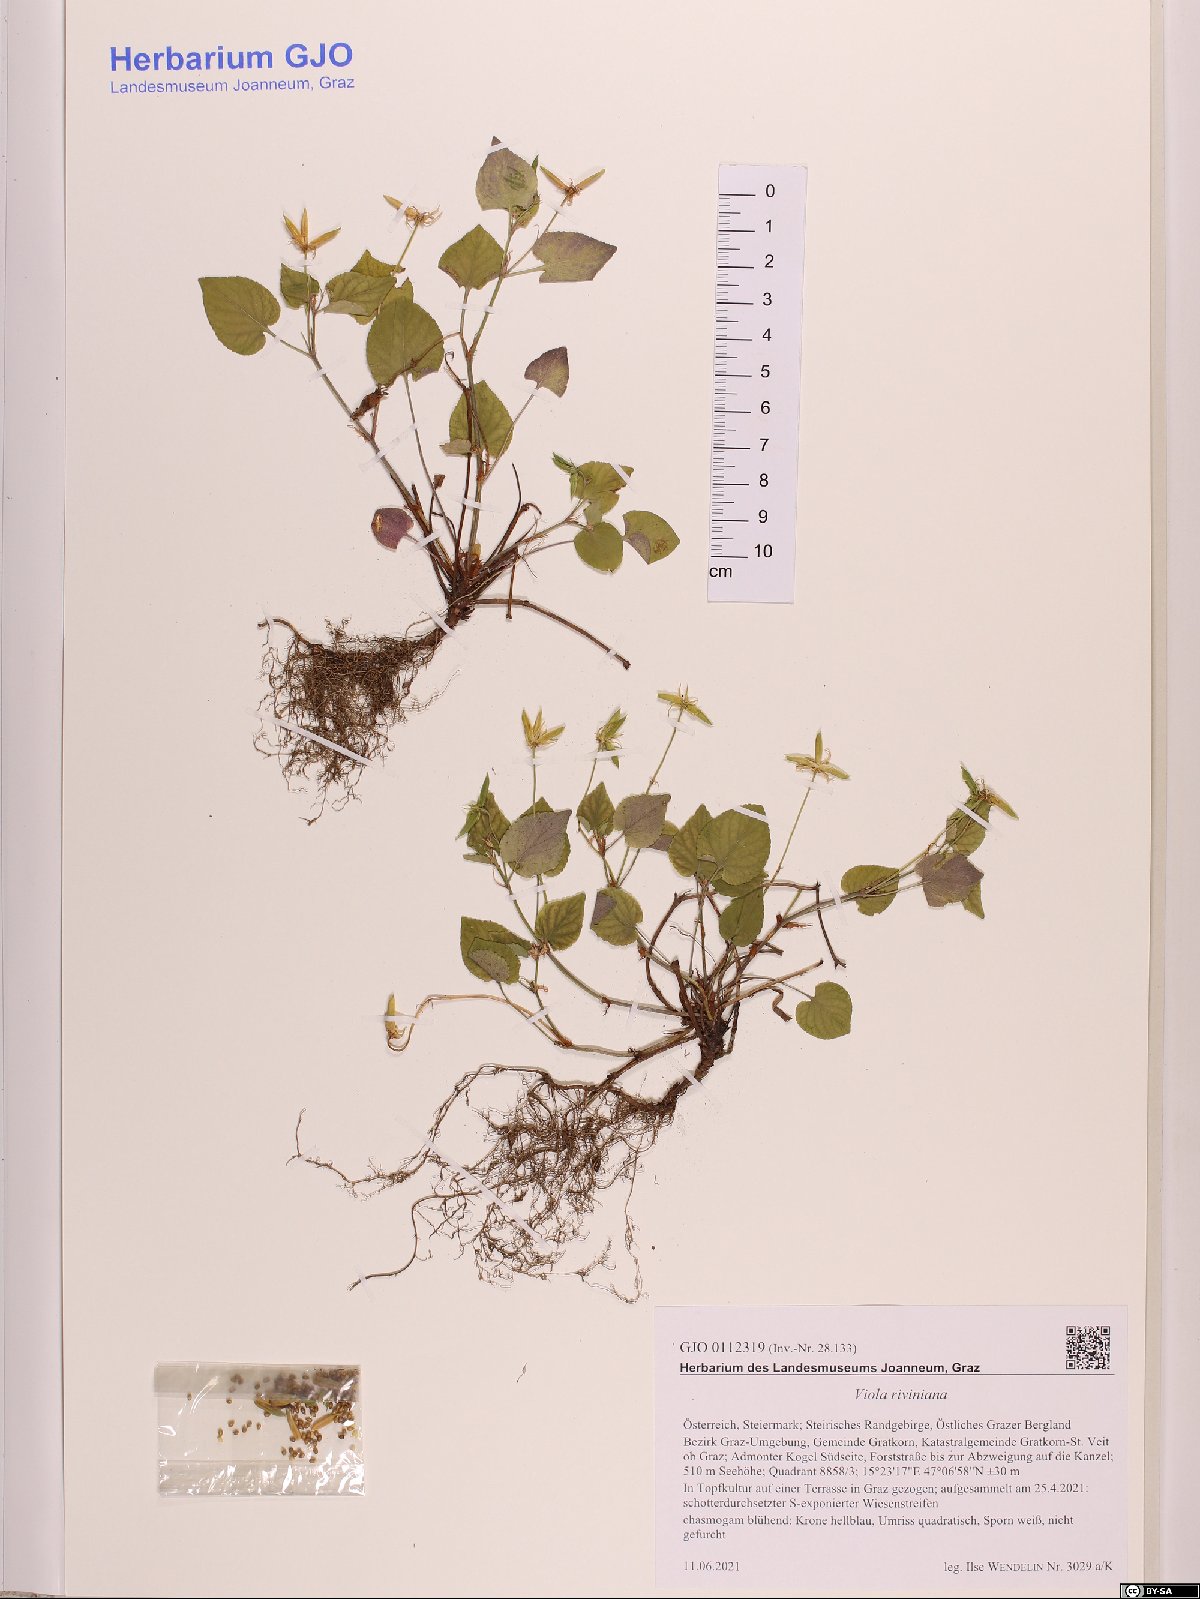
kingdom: Plantae
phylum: Tracheophyta
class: Magnoliopsida
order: Malpighiales
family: Violaceae
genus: Viola
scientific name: Viola riviniana
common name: Common dog-violet
